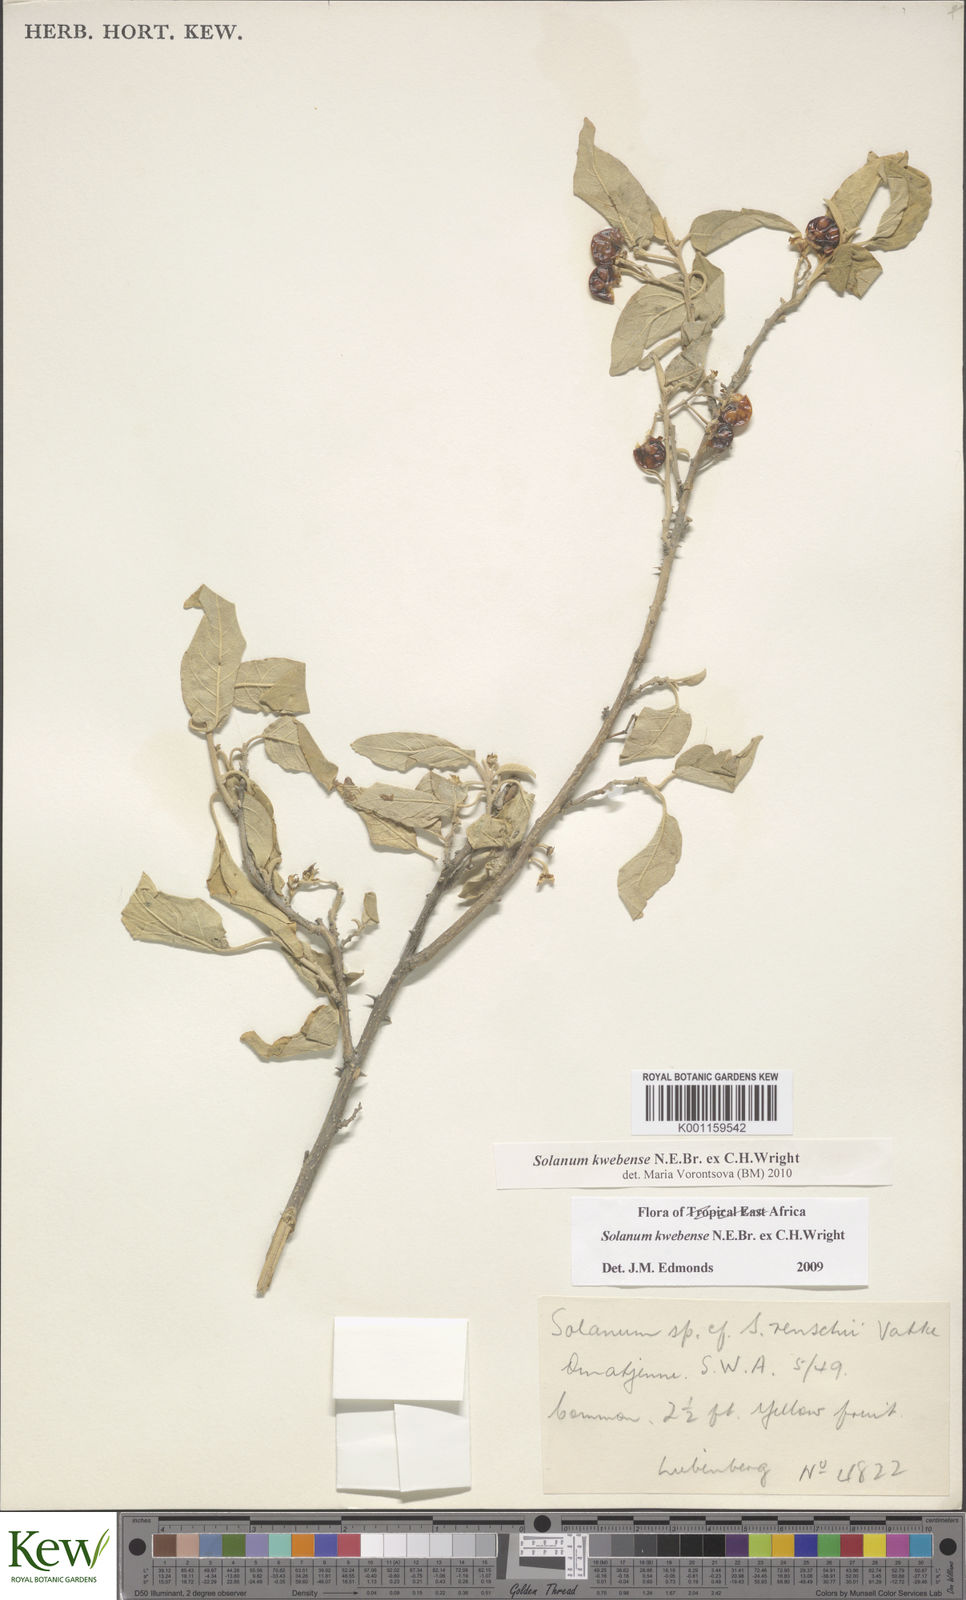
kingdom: Plantae
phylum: Tracheophyta
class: Magnoliopsida
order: Solanales
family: Solanaceae
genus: Solanum
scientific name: Solanum tettense
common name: Mozambique bitter apple
